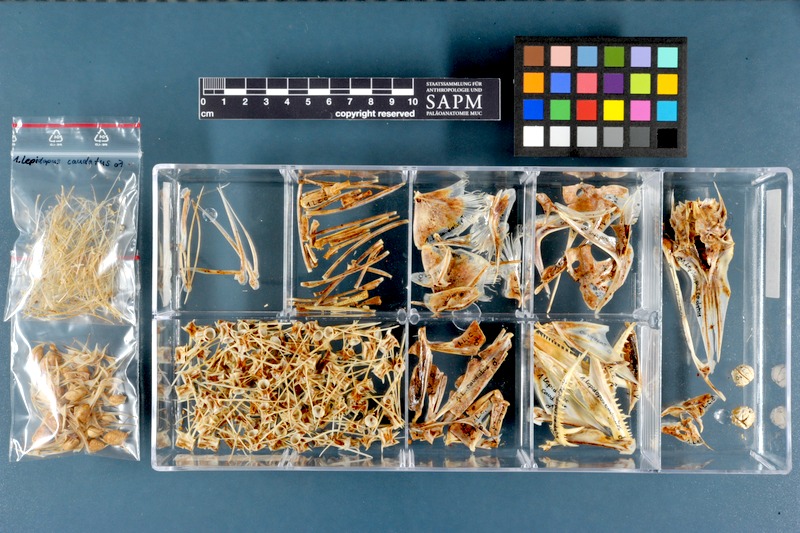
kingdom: Animalia
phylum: Chordata
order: Perciformes
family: Trichiuridae
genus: Lepidopus
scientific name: Lepidopus caudatus
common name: Silver scabbardfish
